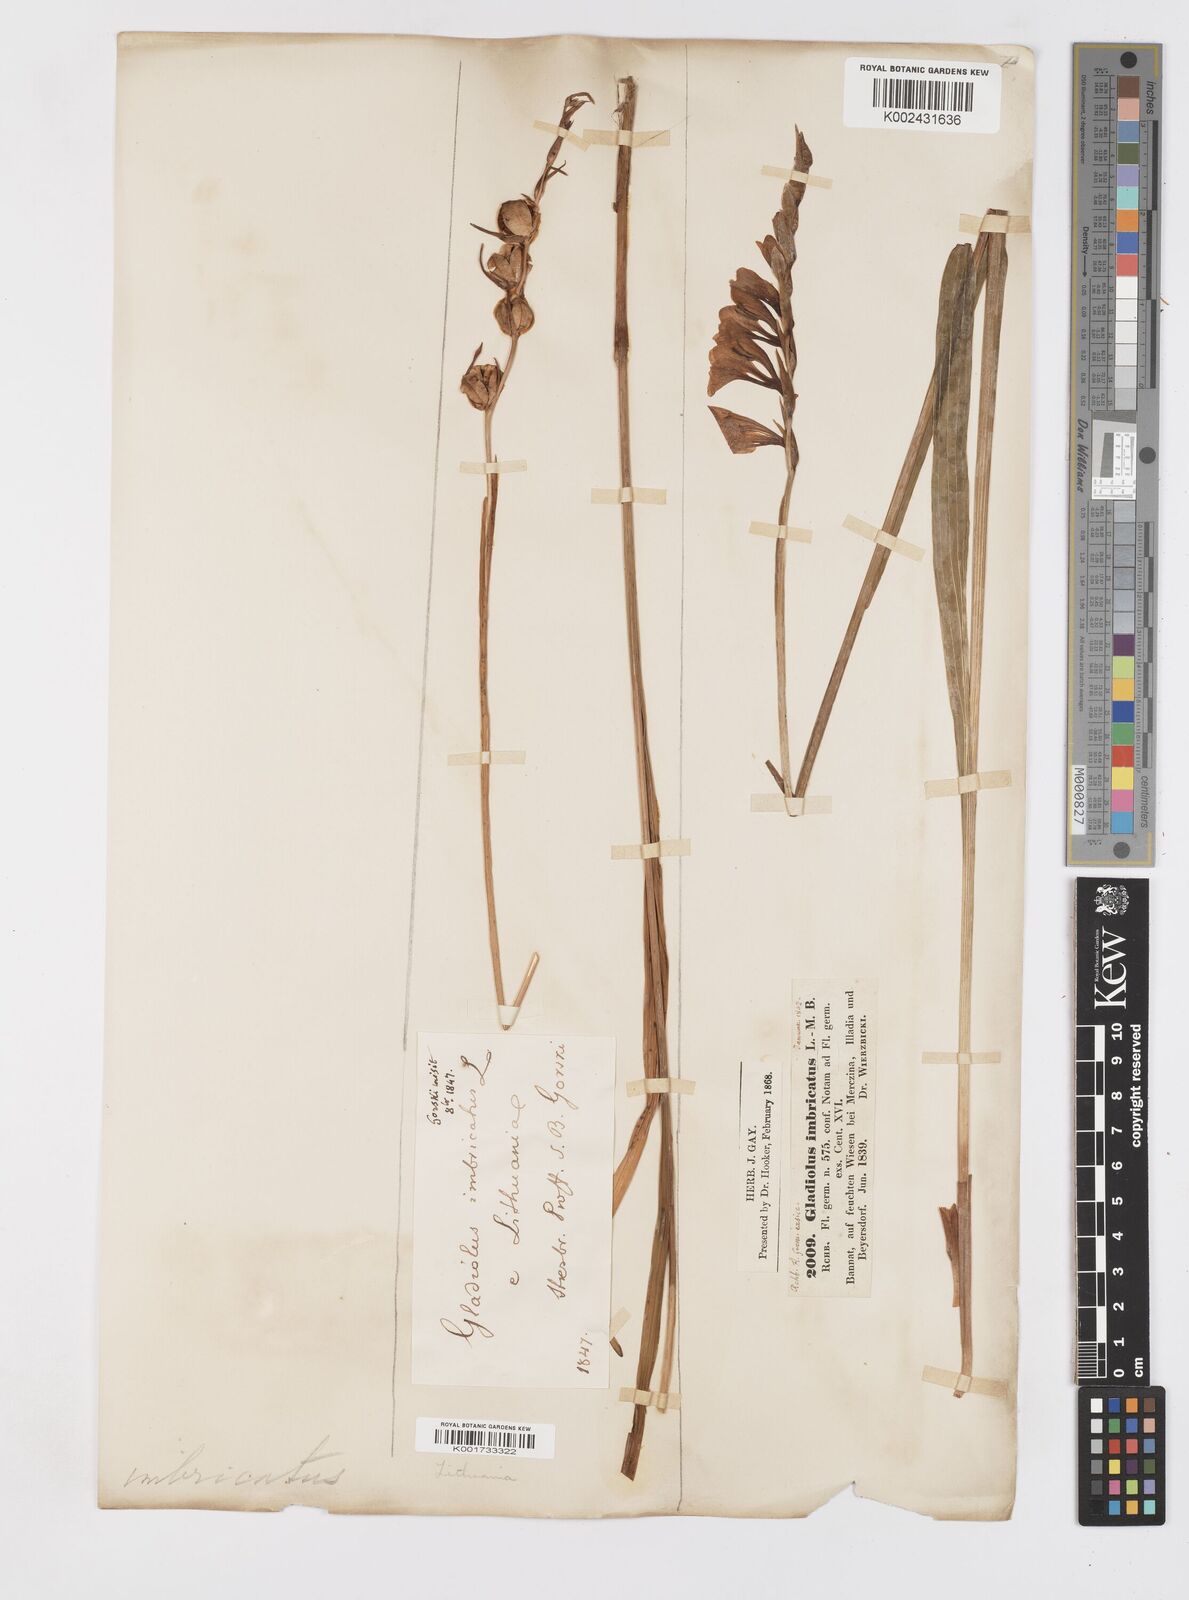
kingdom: Plantae
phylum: Tracheophyta
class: Liliopsida
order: Asparagales
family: Iridaceae
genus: Gladiolus
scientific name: Gladiolus imbricatus
